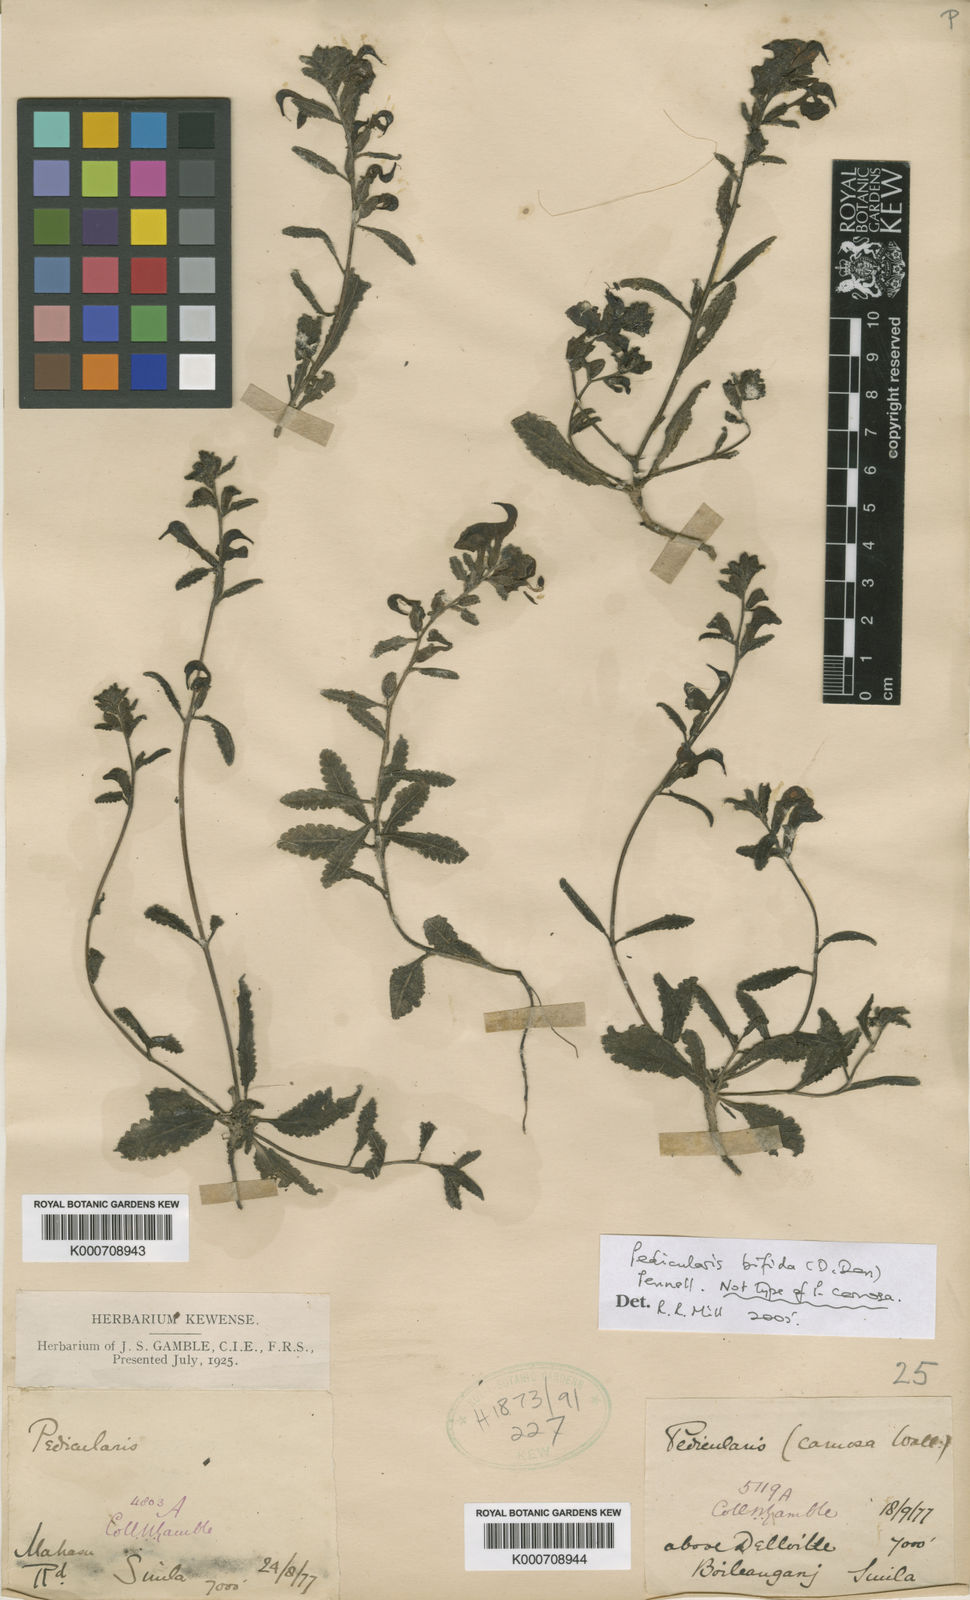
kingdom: Plantae
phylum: Tracheophyta
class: Magnoliopsida
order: Lamiales
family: Orobanchaceae
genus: Pedicularis
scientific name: Pedicularis bifida
